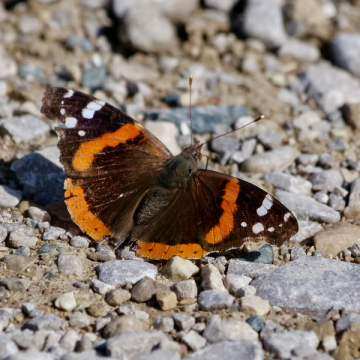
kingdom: Animalia
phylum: Arthropoda
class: Insecta
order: Lepidoptera
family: Nymphalidae
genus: Vanessa
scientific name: Vanessa atalanta
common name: Red Admiral
